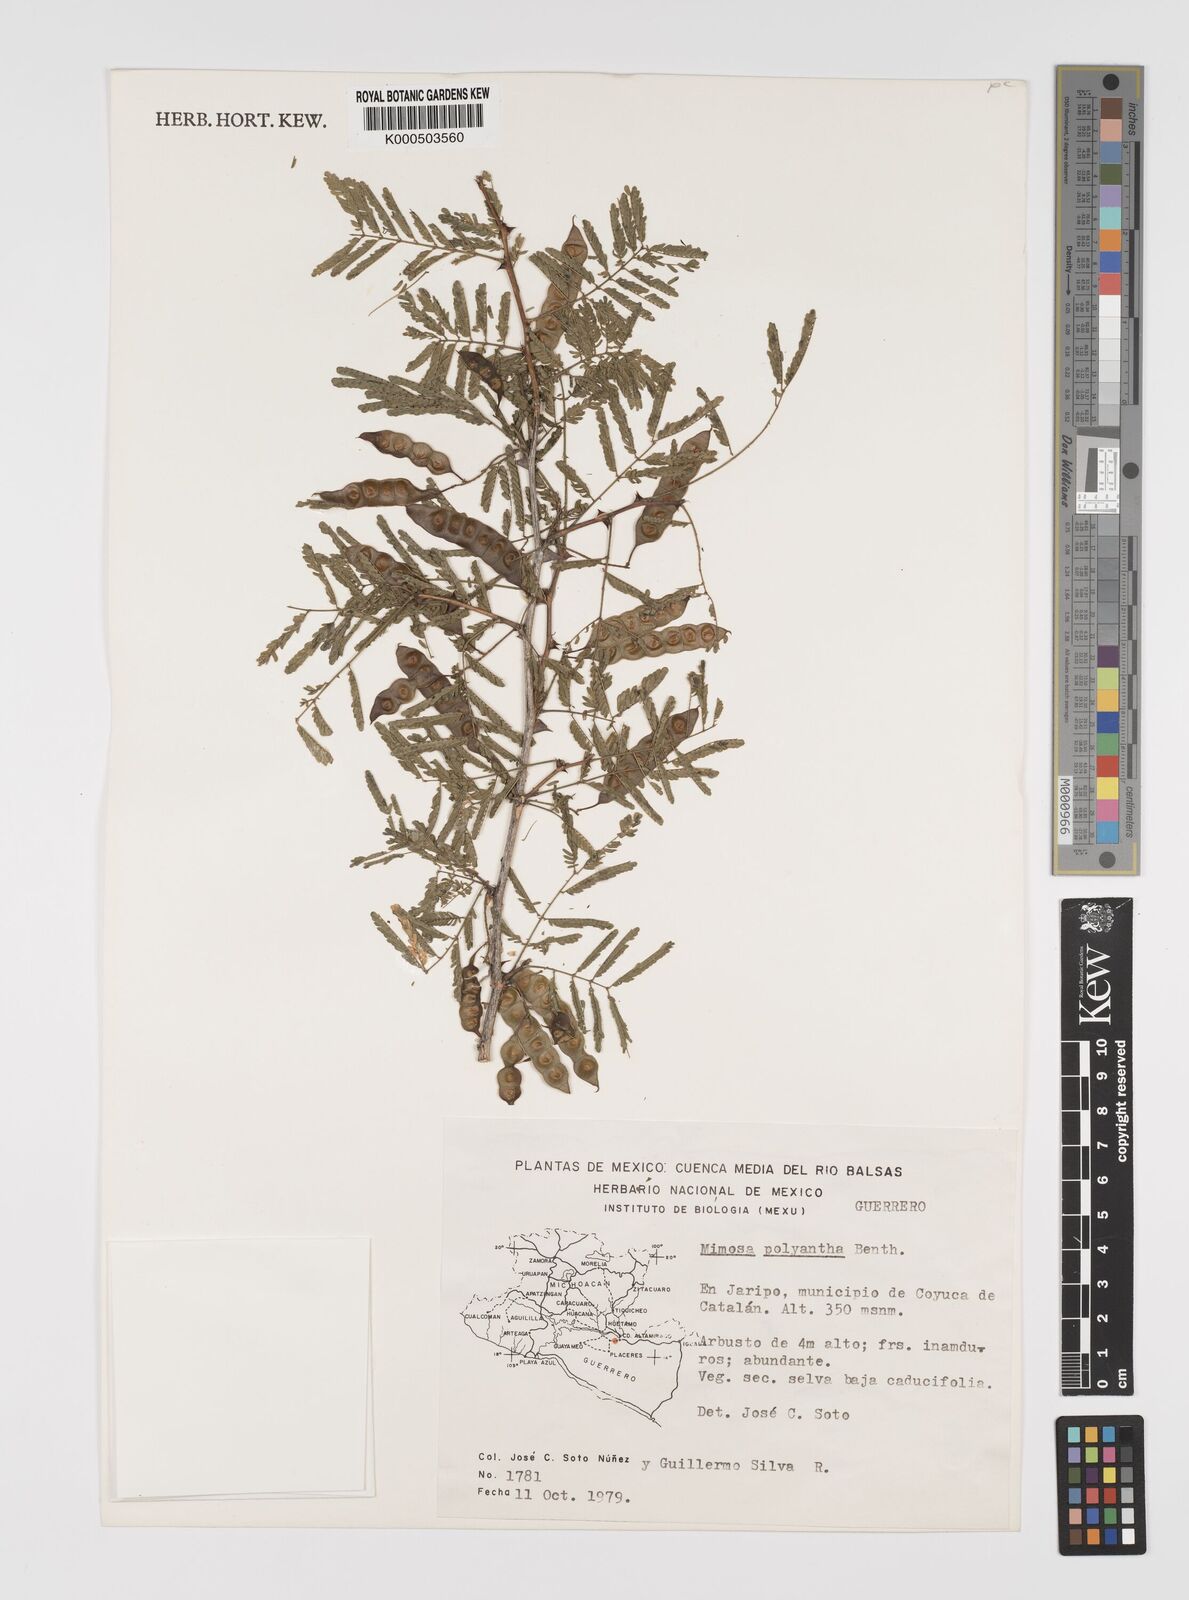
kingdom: Plantae
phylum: Tracheophyta
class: Magnoliopsida
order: Fabales
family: Fabaceae
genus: Mimosa
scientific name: Mimosa polyantha
